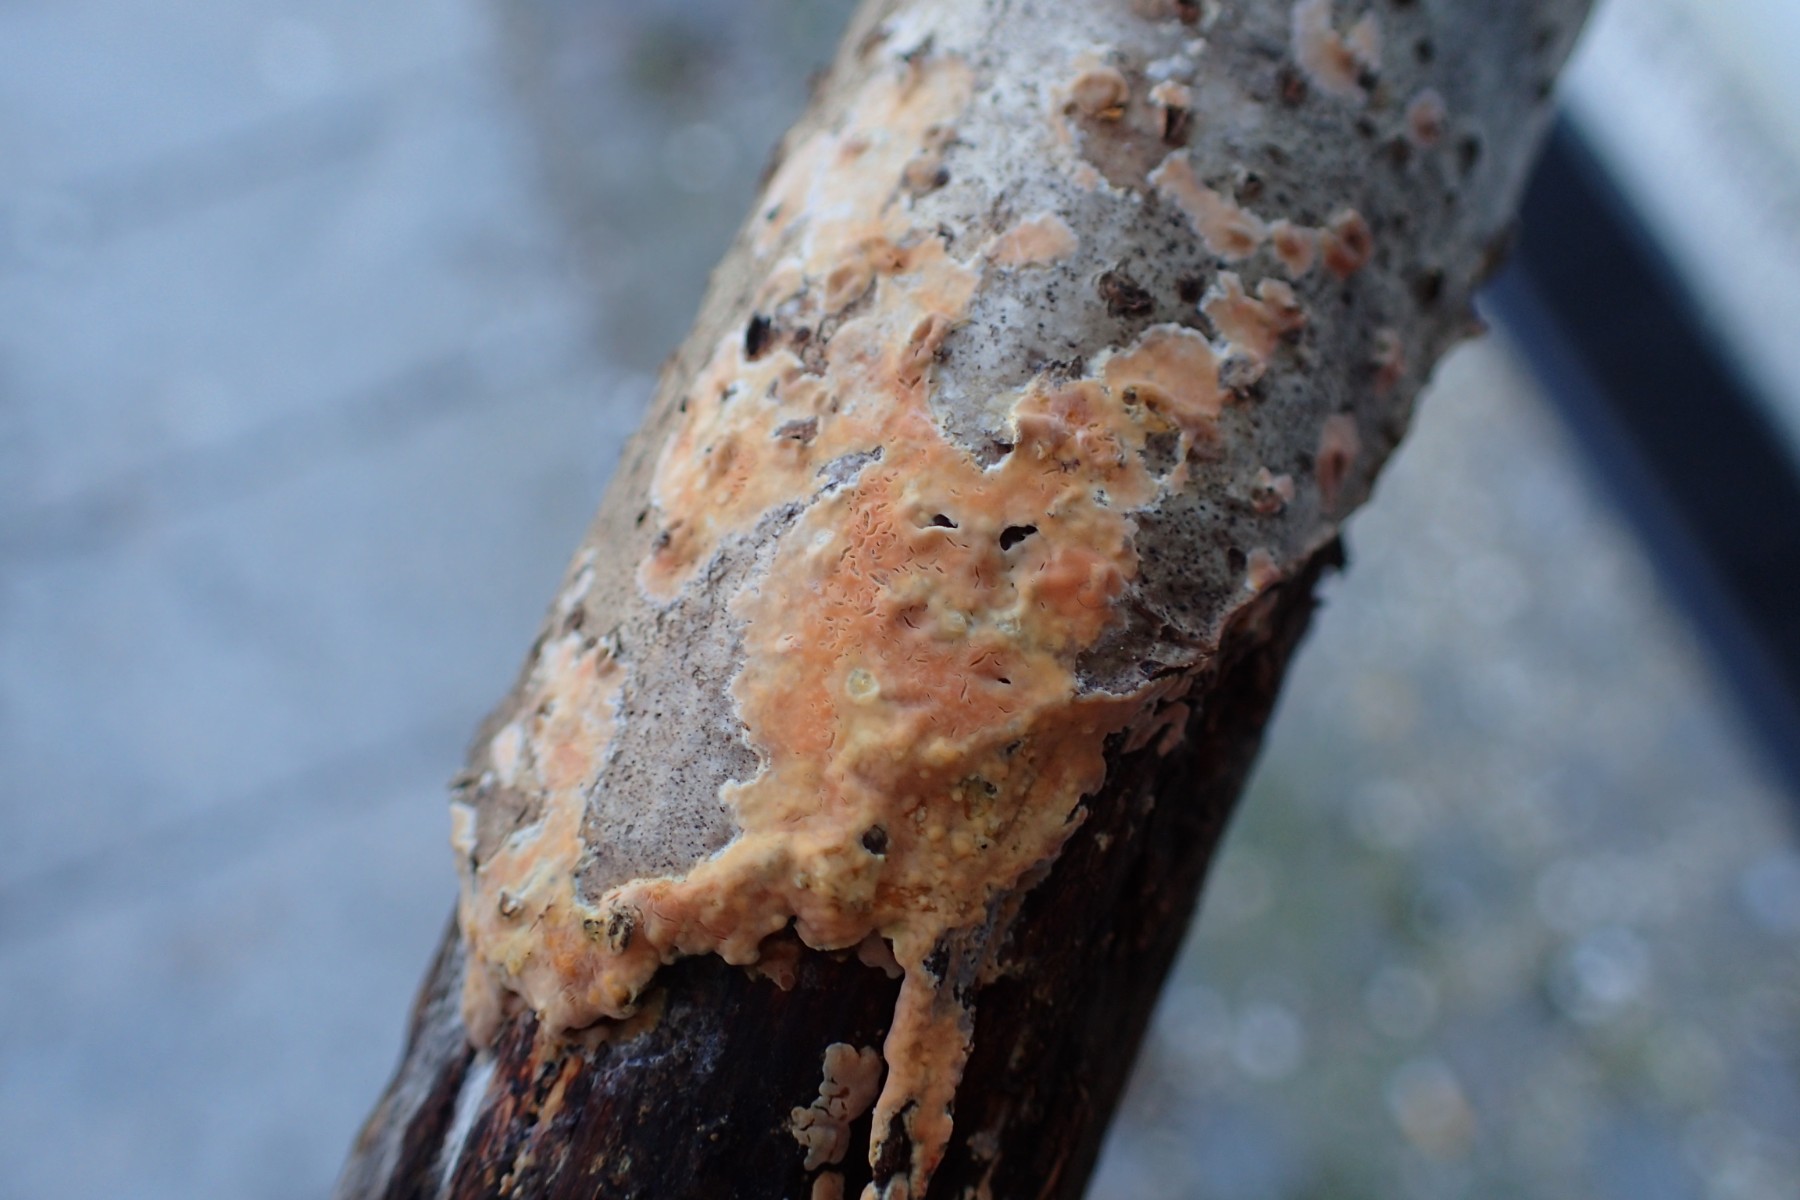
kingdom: Fungi
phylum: Basidiomycota
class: Agaricomycetes
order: Russulales
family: Peniophoraceae
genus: Peniophora
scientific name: Peniophora incarnata
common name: laksefarvet voksskind
